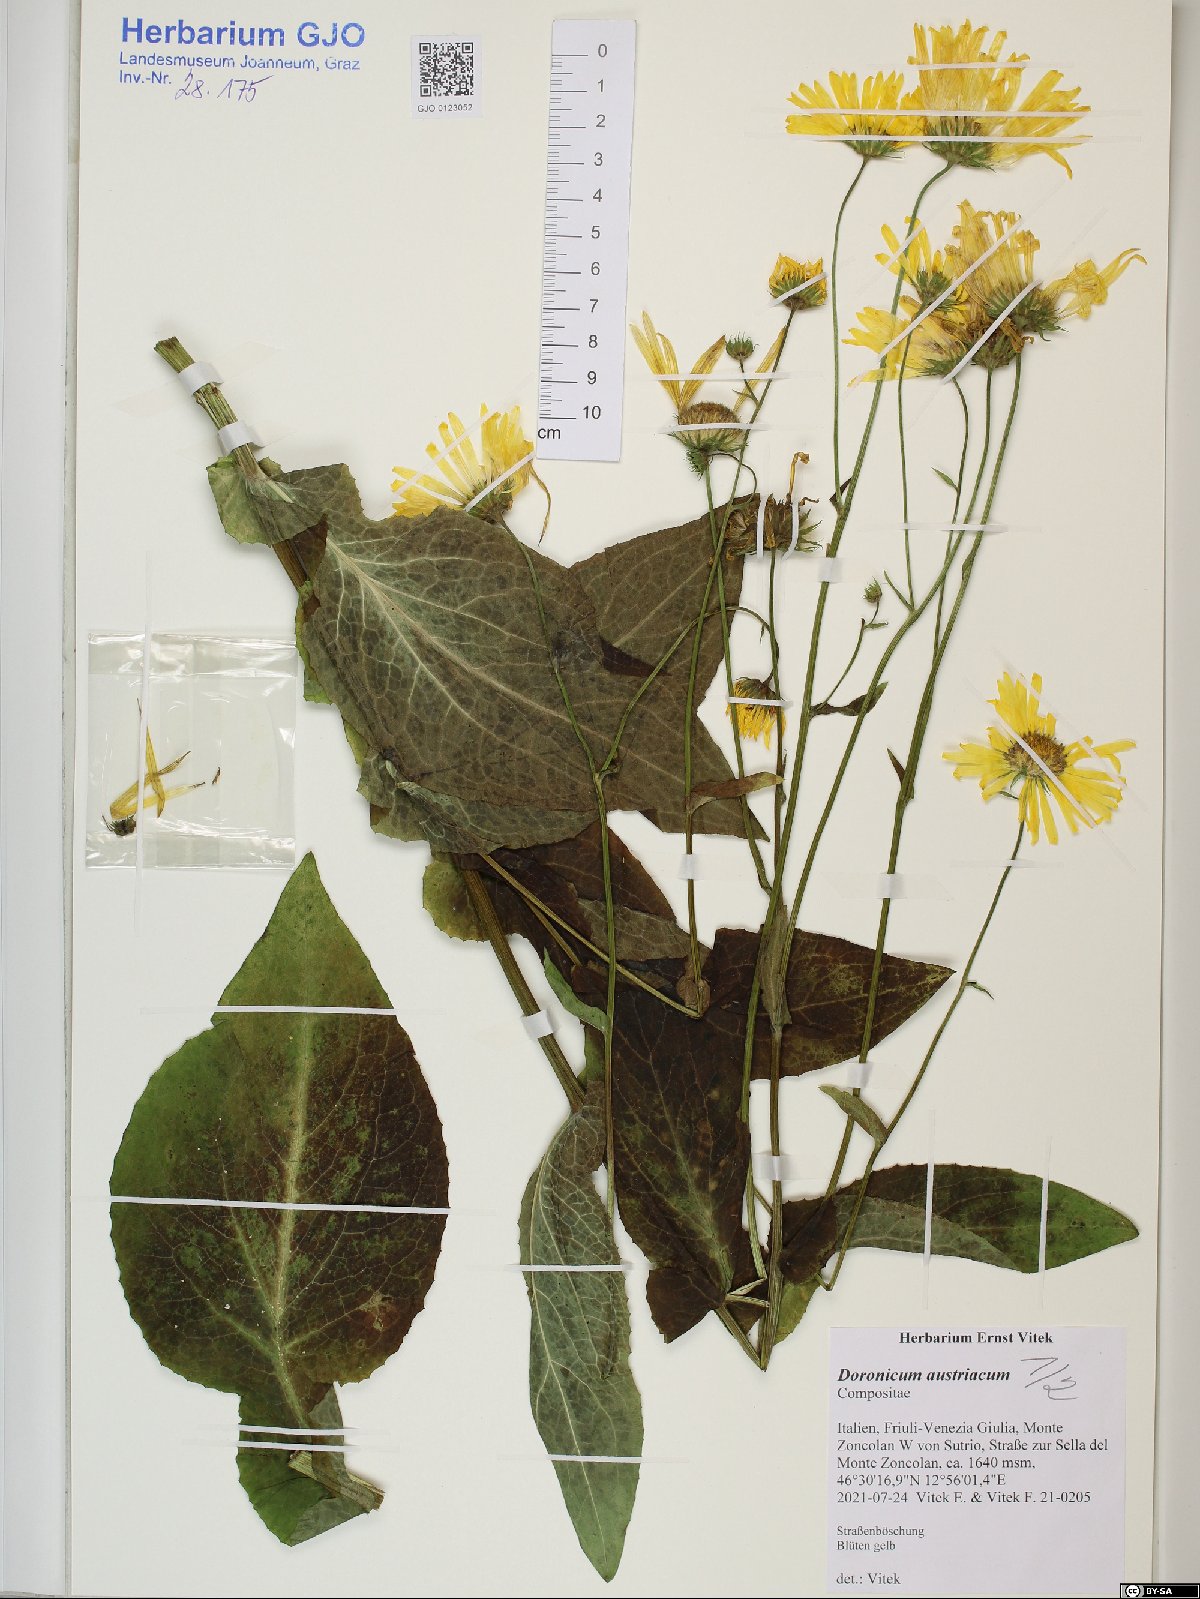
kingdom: Plantae
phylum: Tracheophyta
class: Magnoliopsida
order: Asterales
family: Asteraceae
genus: Doronicum
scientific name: Doronicum austriacum
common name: Austrian leopard's-bane
